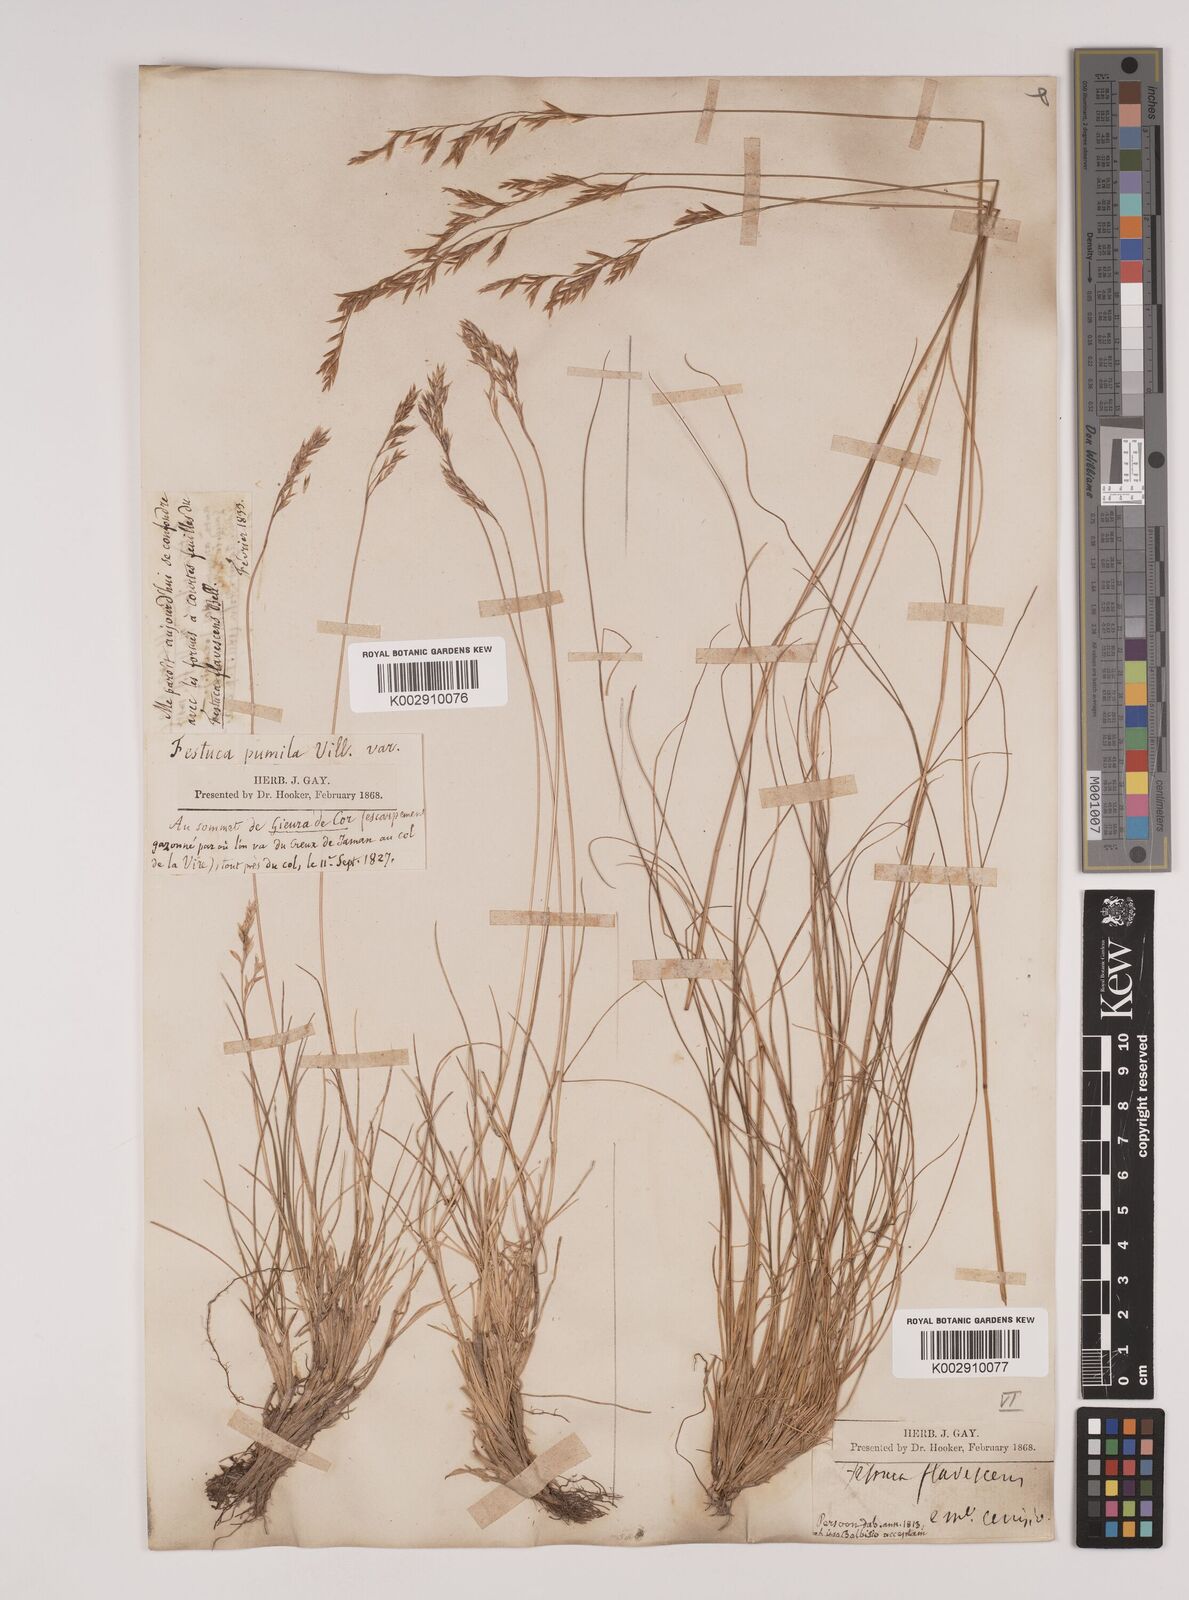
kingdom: Plantae
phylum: Tracheophyta
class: Liliopsida
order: Poales
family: Poaceae
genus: Festuca
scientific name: Festuca flavescens
